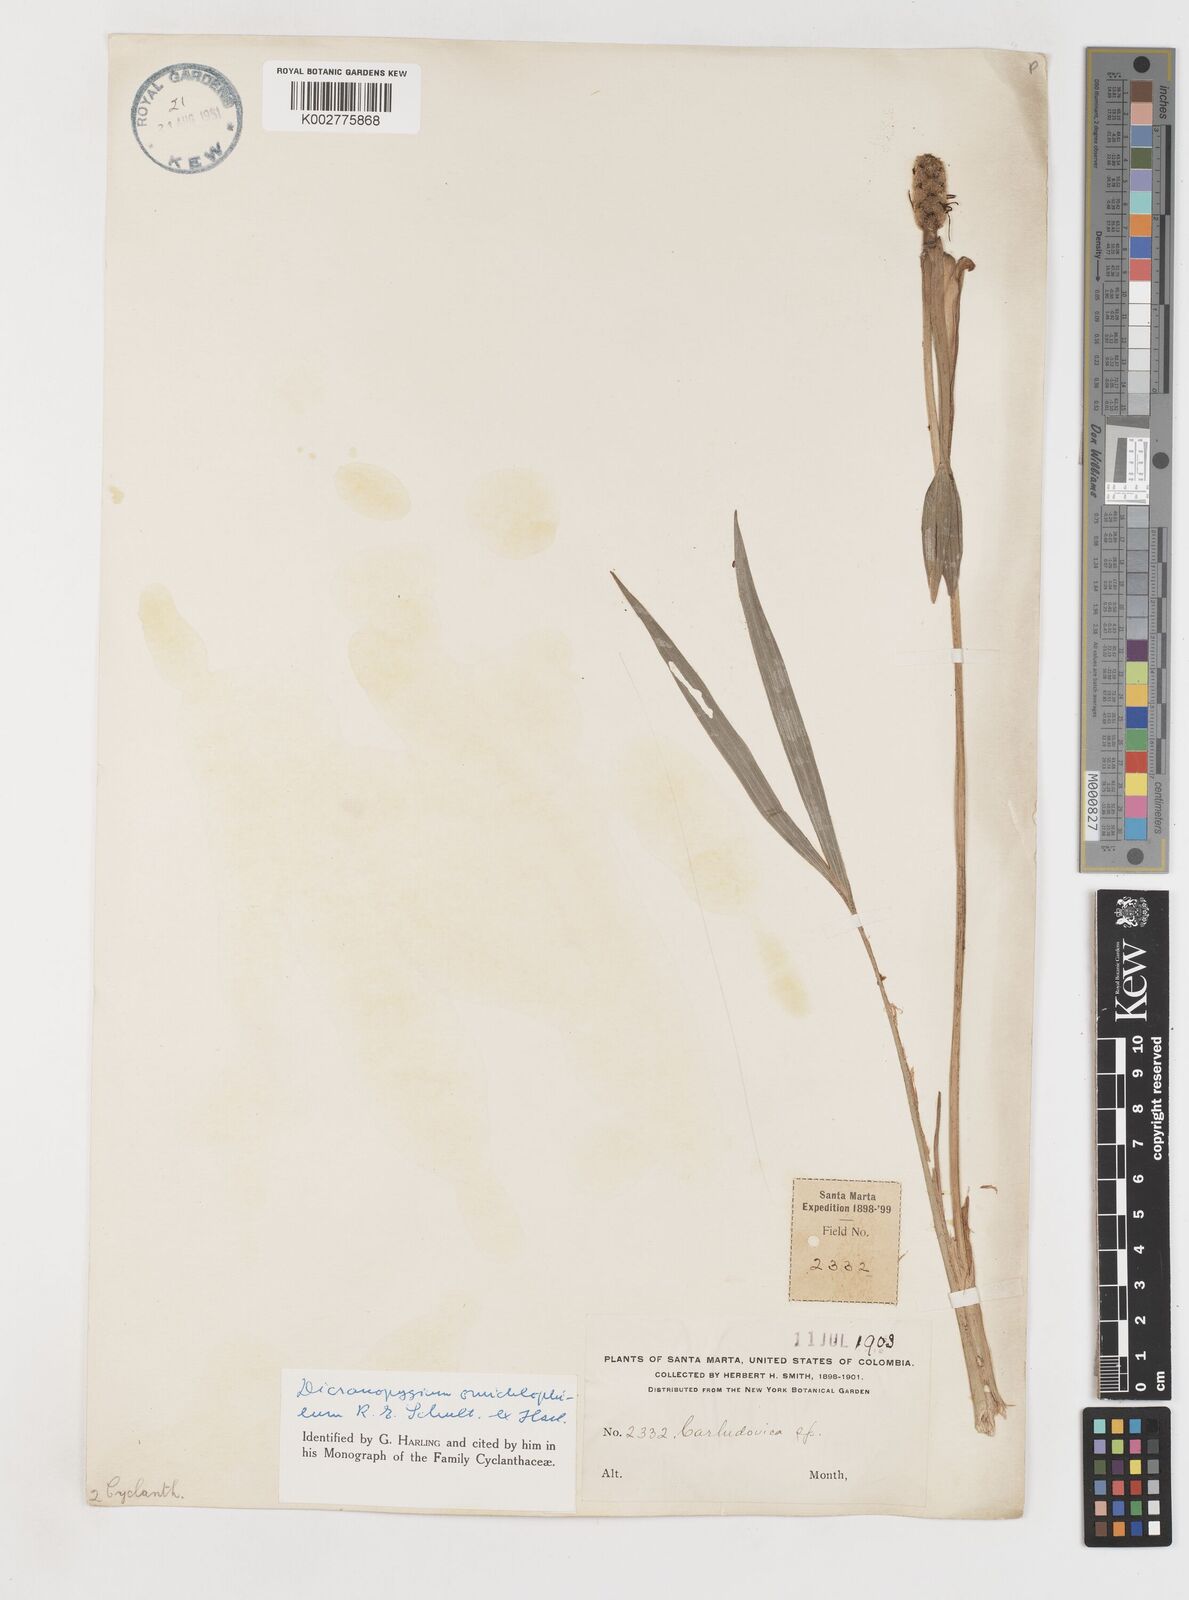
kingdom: Plantae
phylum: Tracheophyta
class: Liliopsida
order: Pandanales
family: Cyclanthaceae
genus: Dicranopygium
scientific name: Dicranopygium omichlophilum
